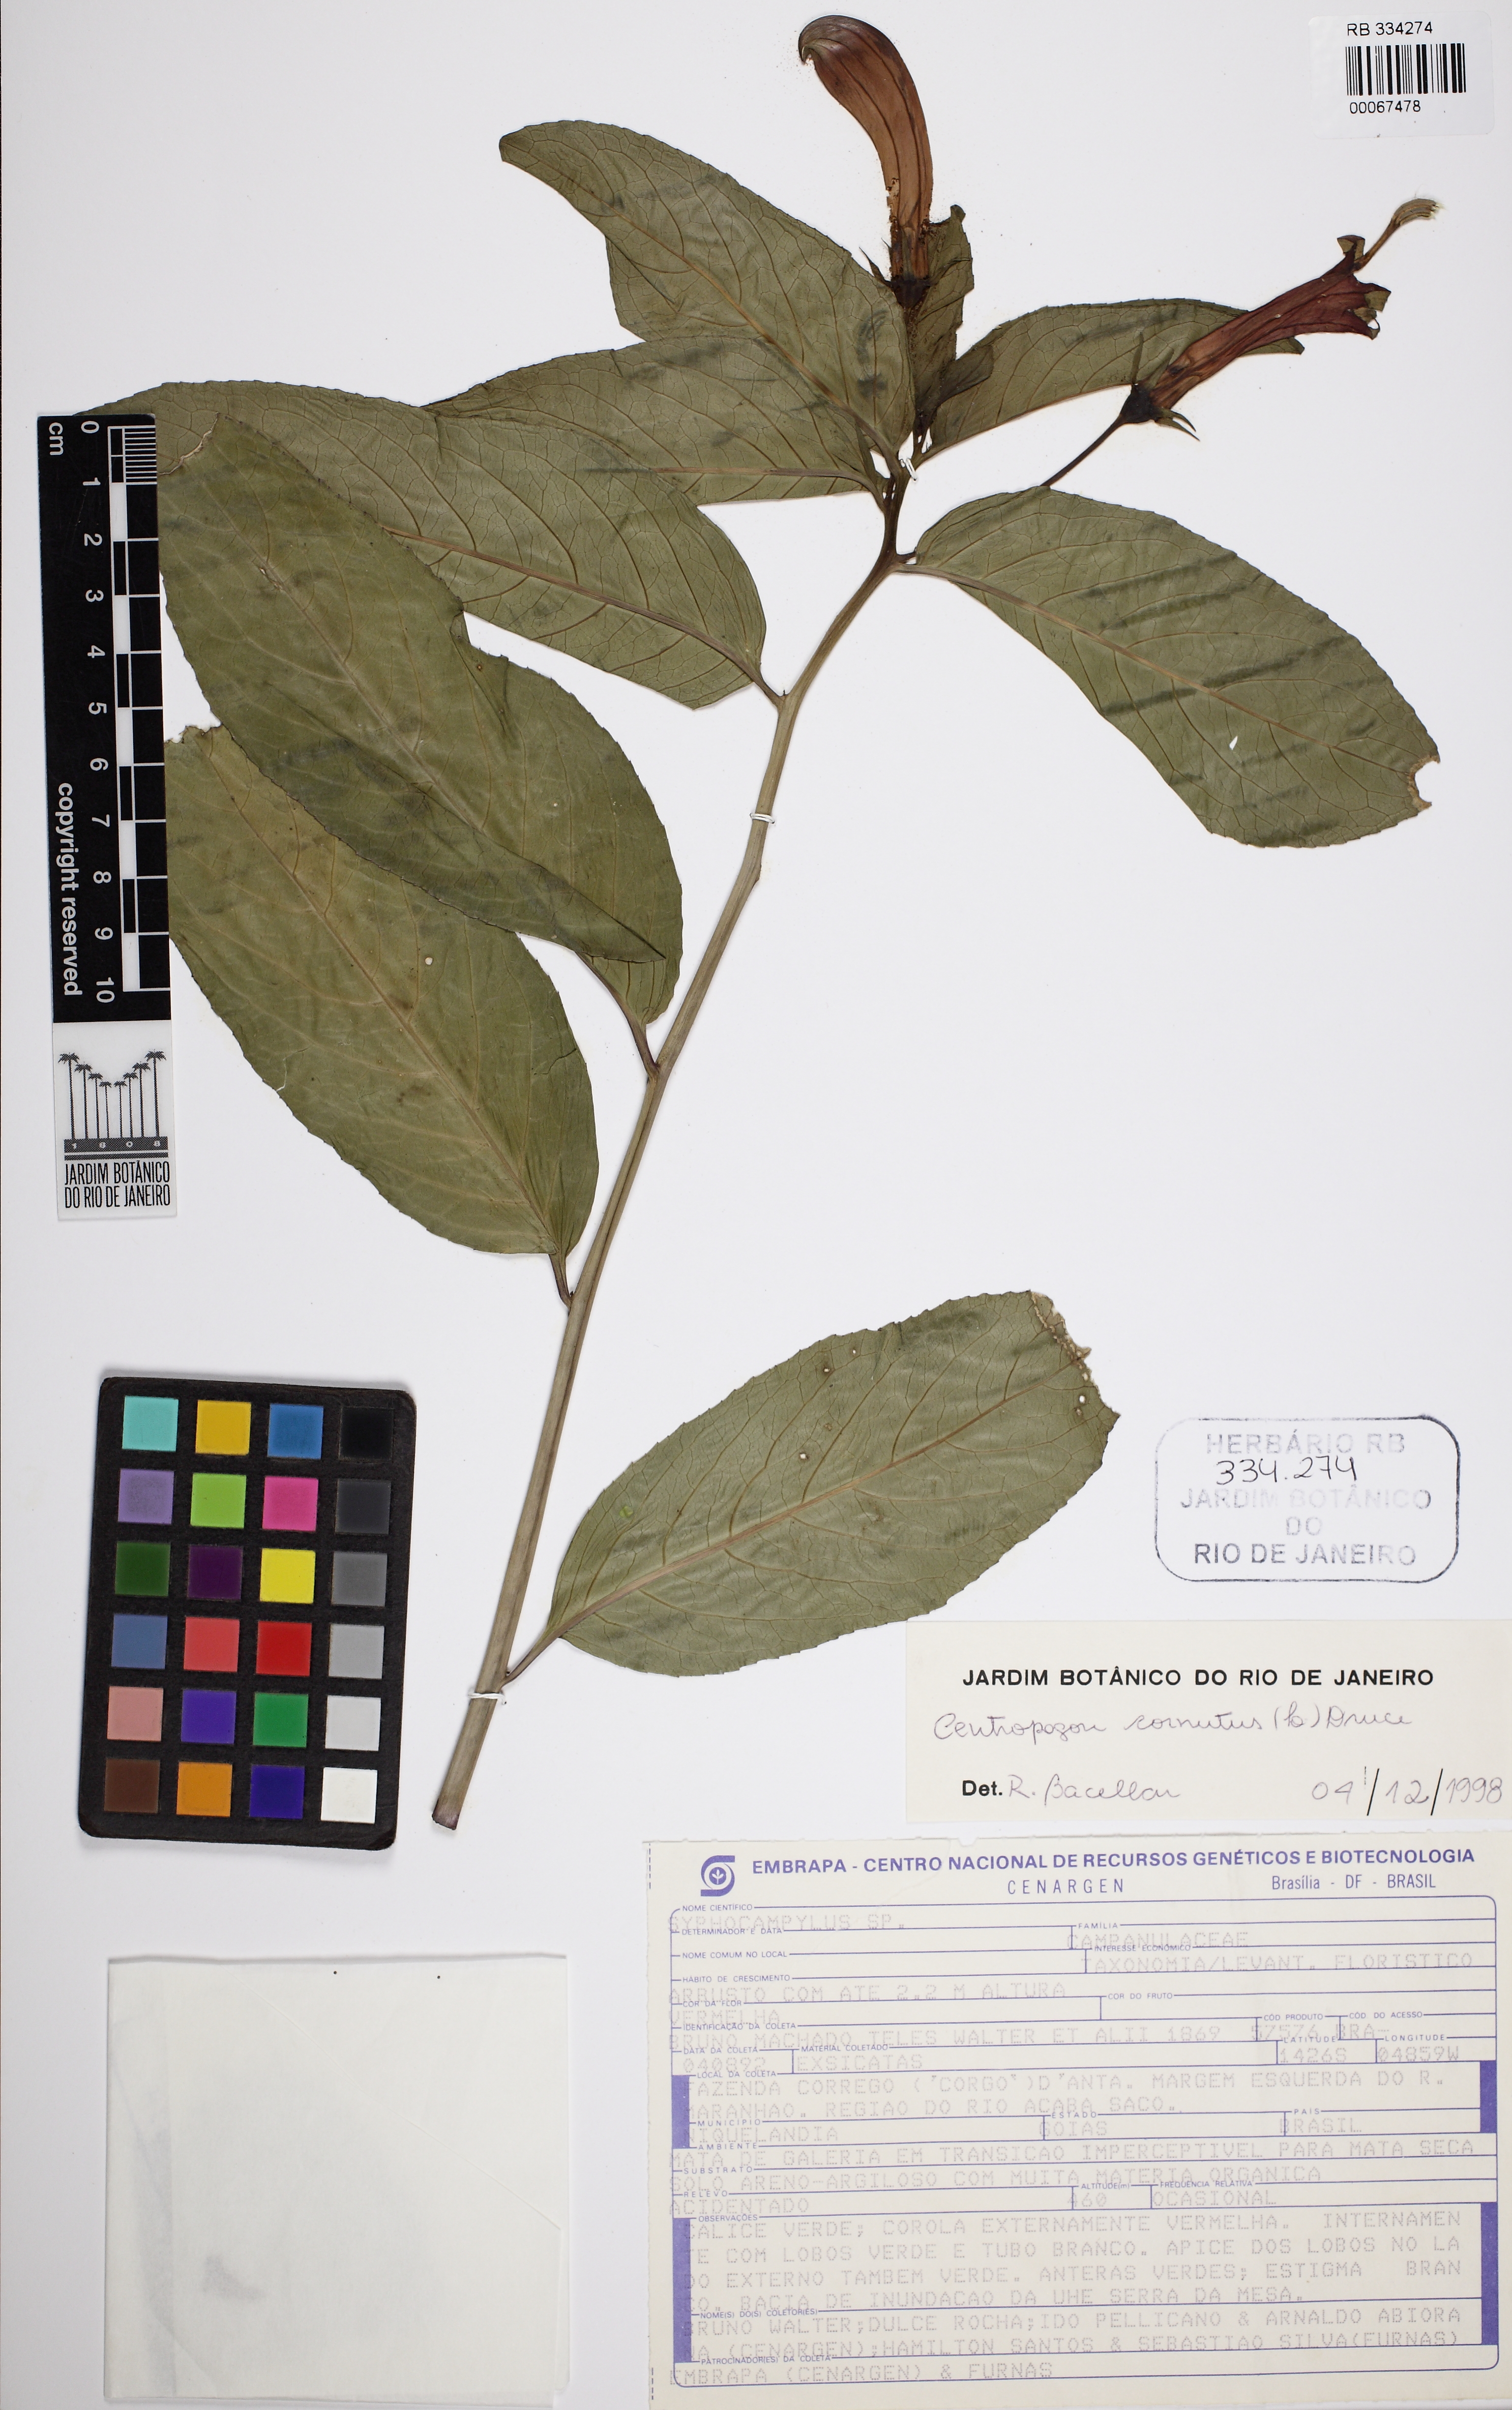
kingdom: Plantae
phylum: Tracheophyta
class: Magnoliopsida
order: Asterales
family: Campanulaceae
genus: Centropogon
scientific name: Centropogon cornutus
